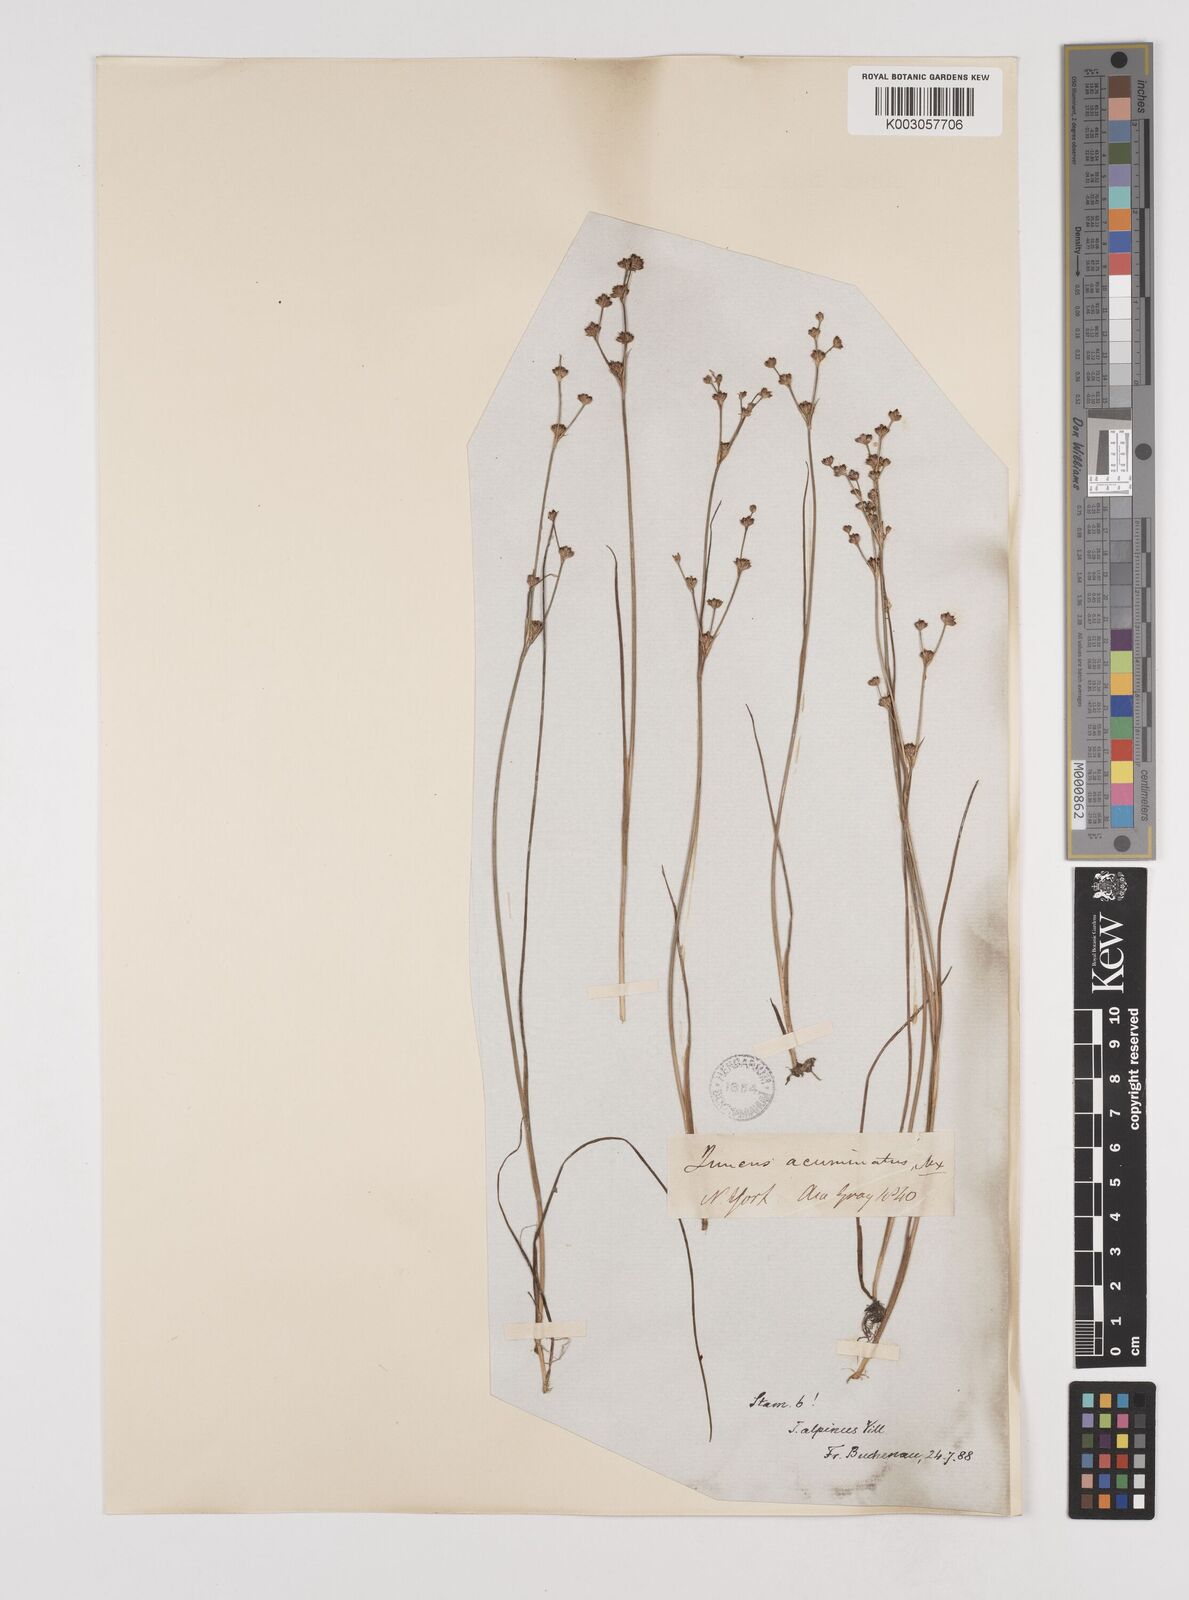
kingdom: Plantae
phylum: Tracheophyta
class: Liliopsida
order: Poales
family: Juncaceae
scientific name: Juncaceae
